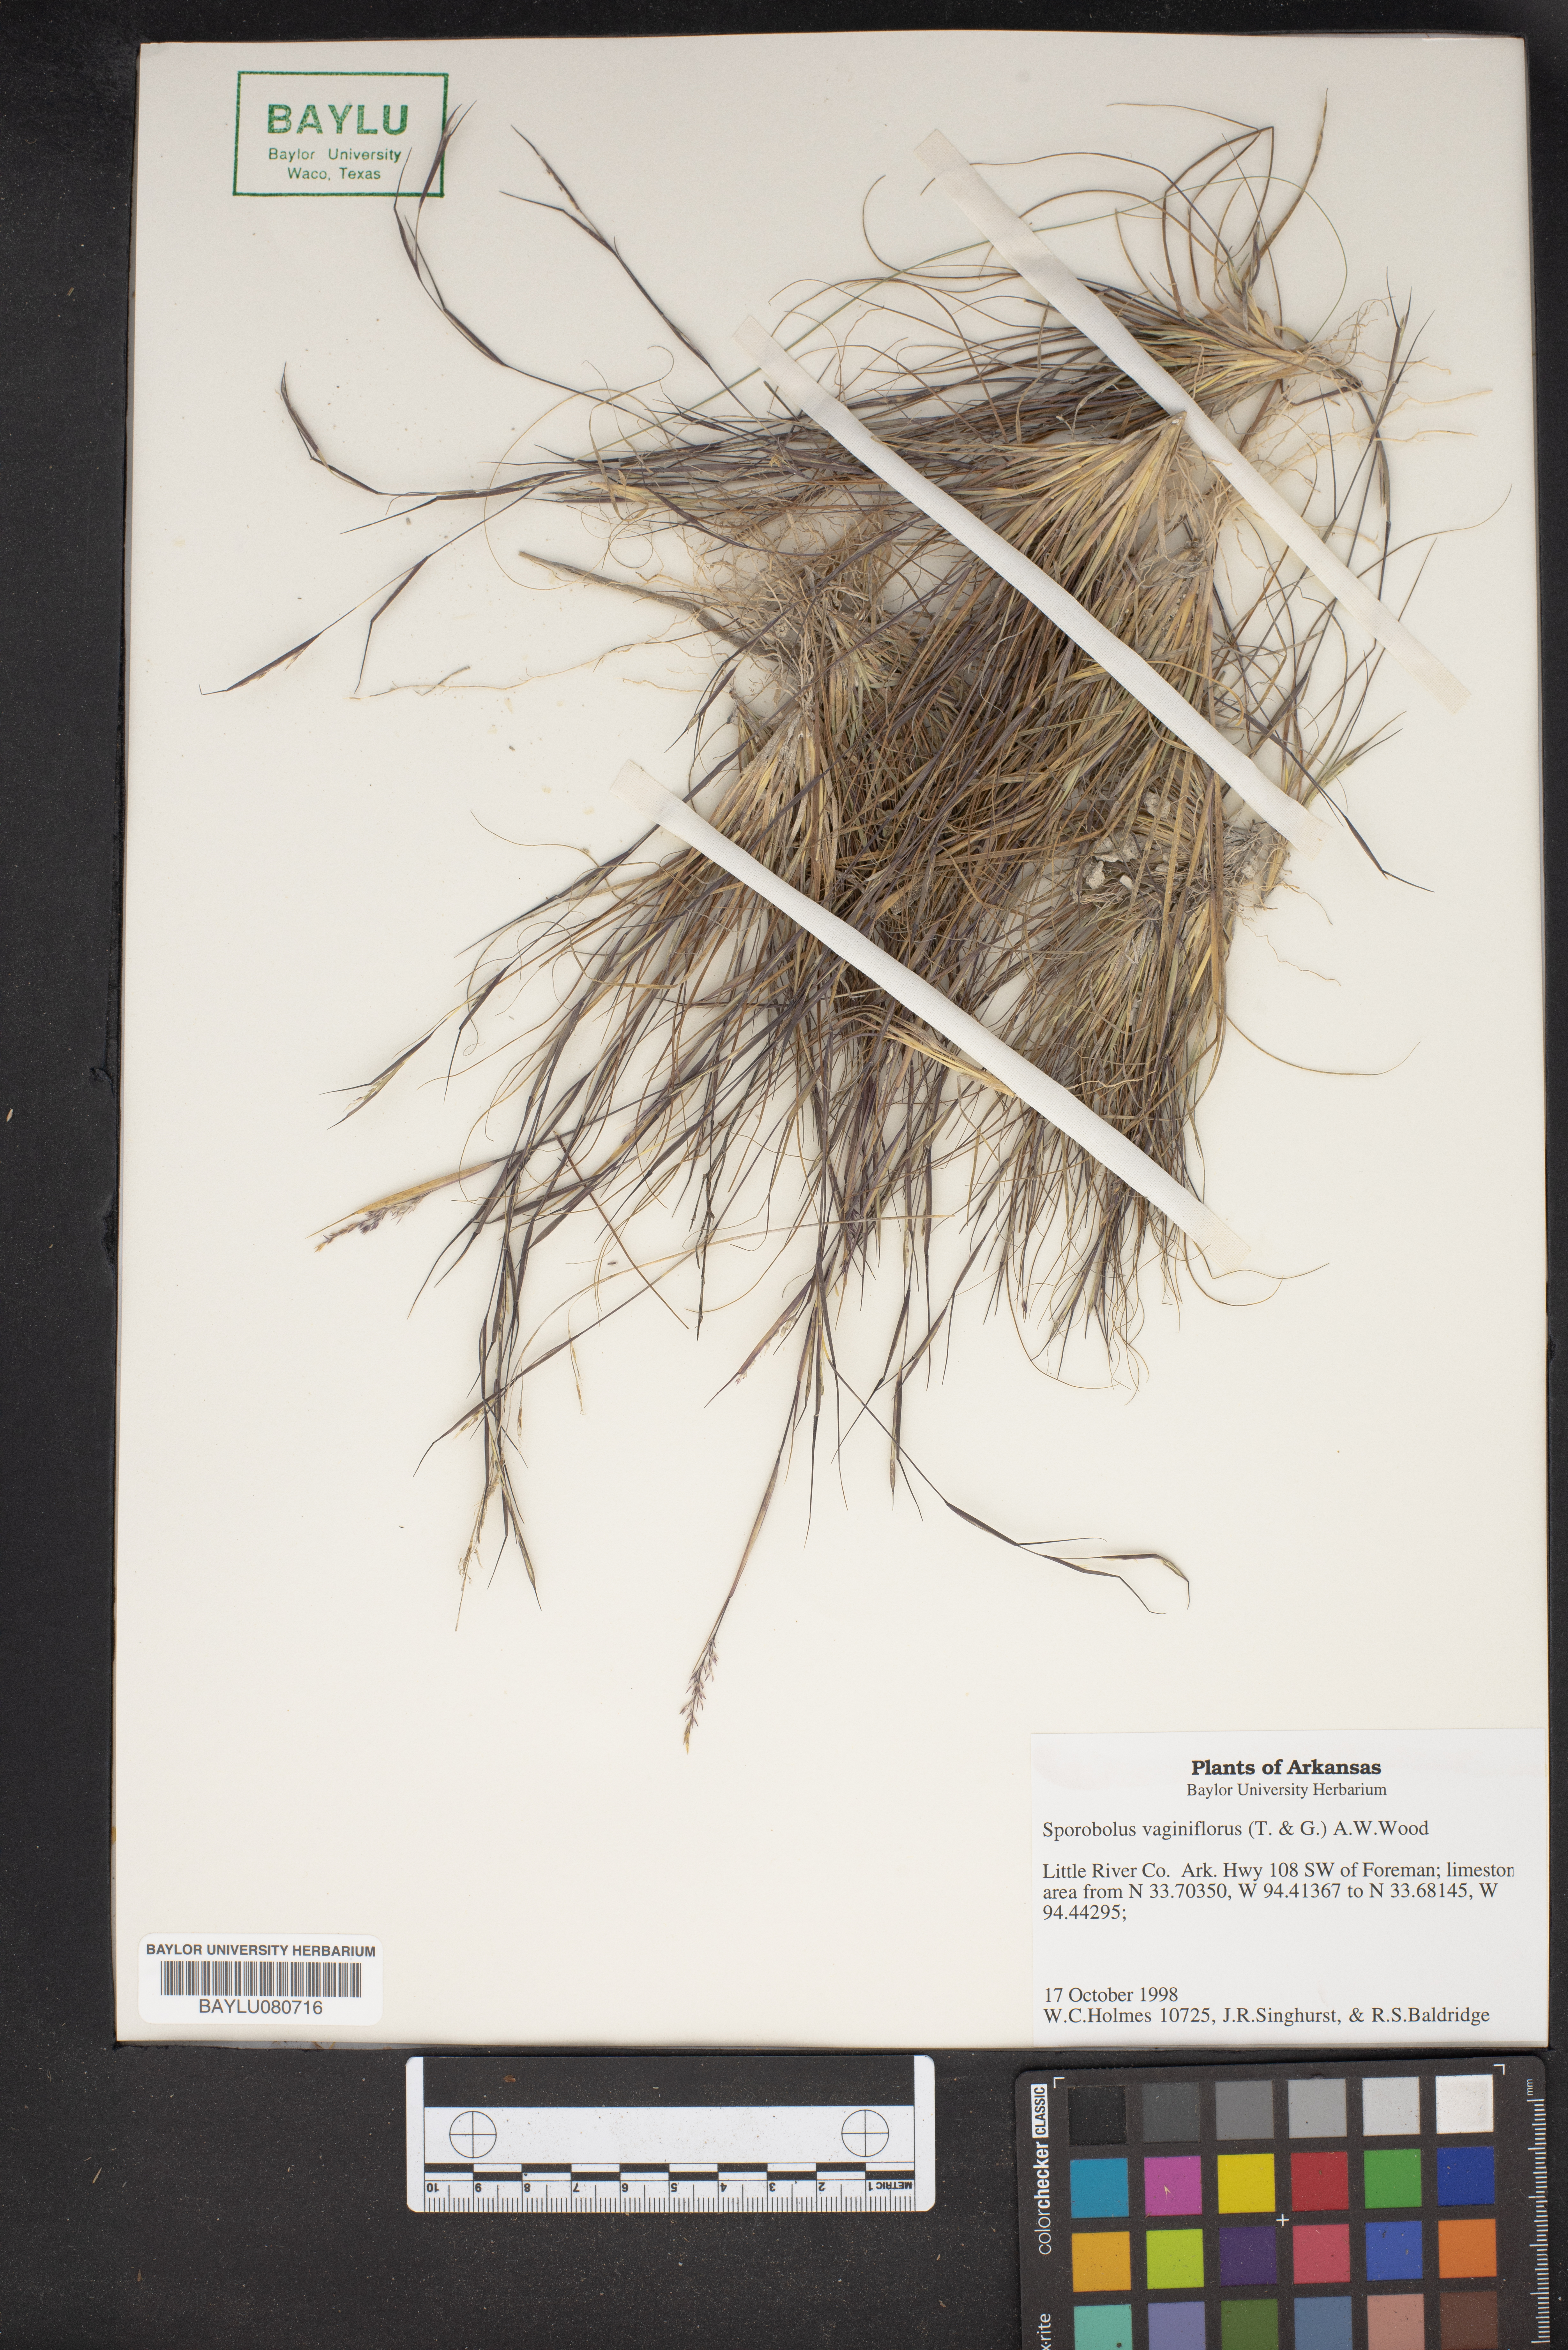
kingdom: Plantae
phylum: Tracheophyta
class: Liliopsida
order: Poales
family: Poaceae
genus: Sporobolus
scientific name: Sporobolus vaginiflorus
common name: Poverty dropseed
